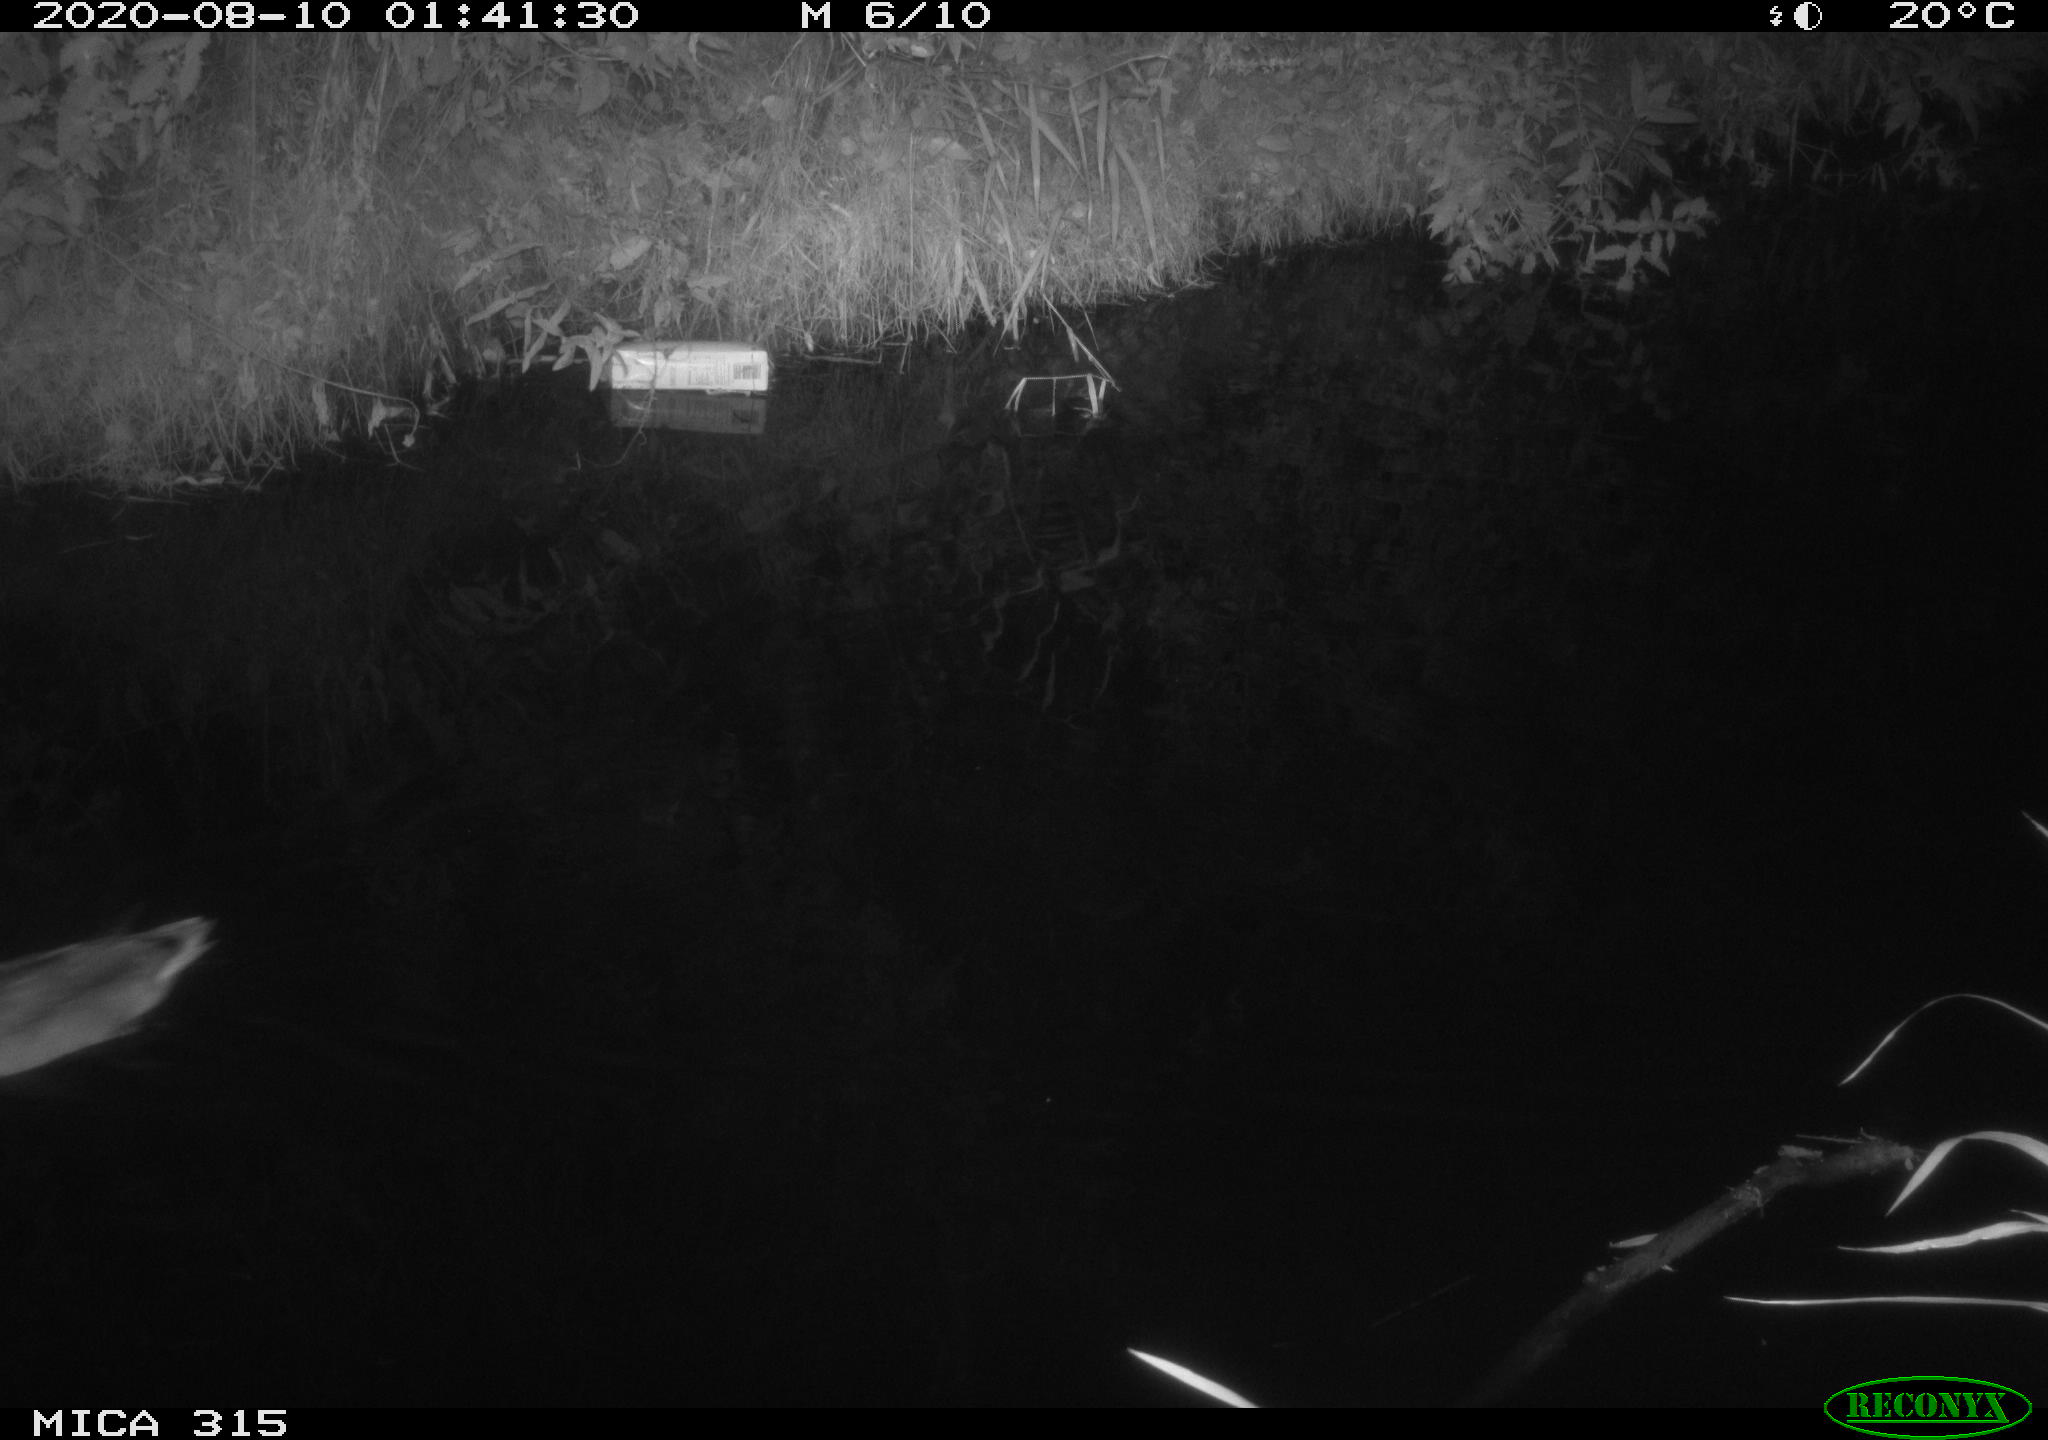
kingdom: Animalia
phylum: Chordata
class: Aves
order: Anseriformes
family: Anatidae
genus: Anas
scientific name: Anas platyrhynchos
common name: Mallard
